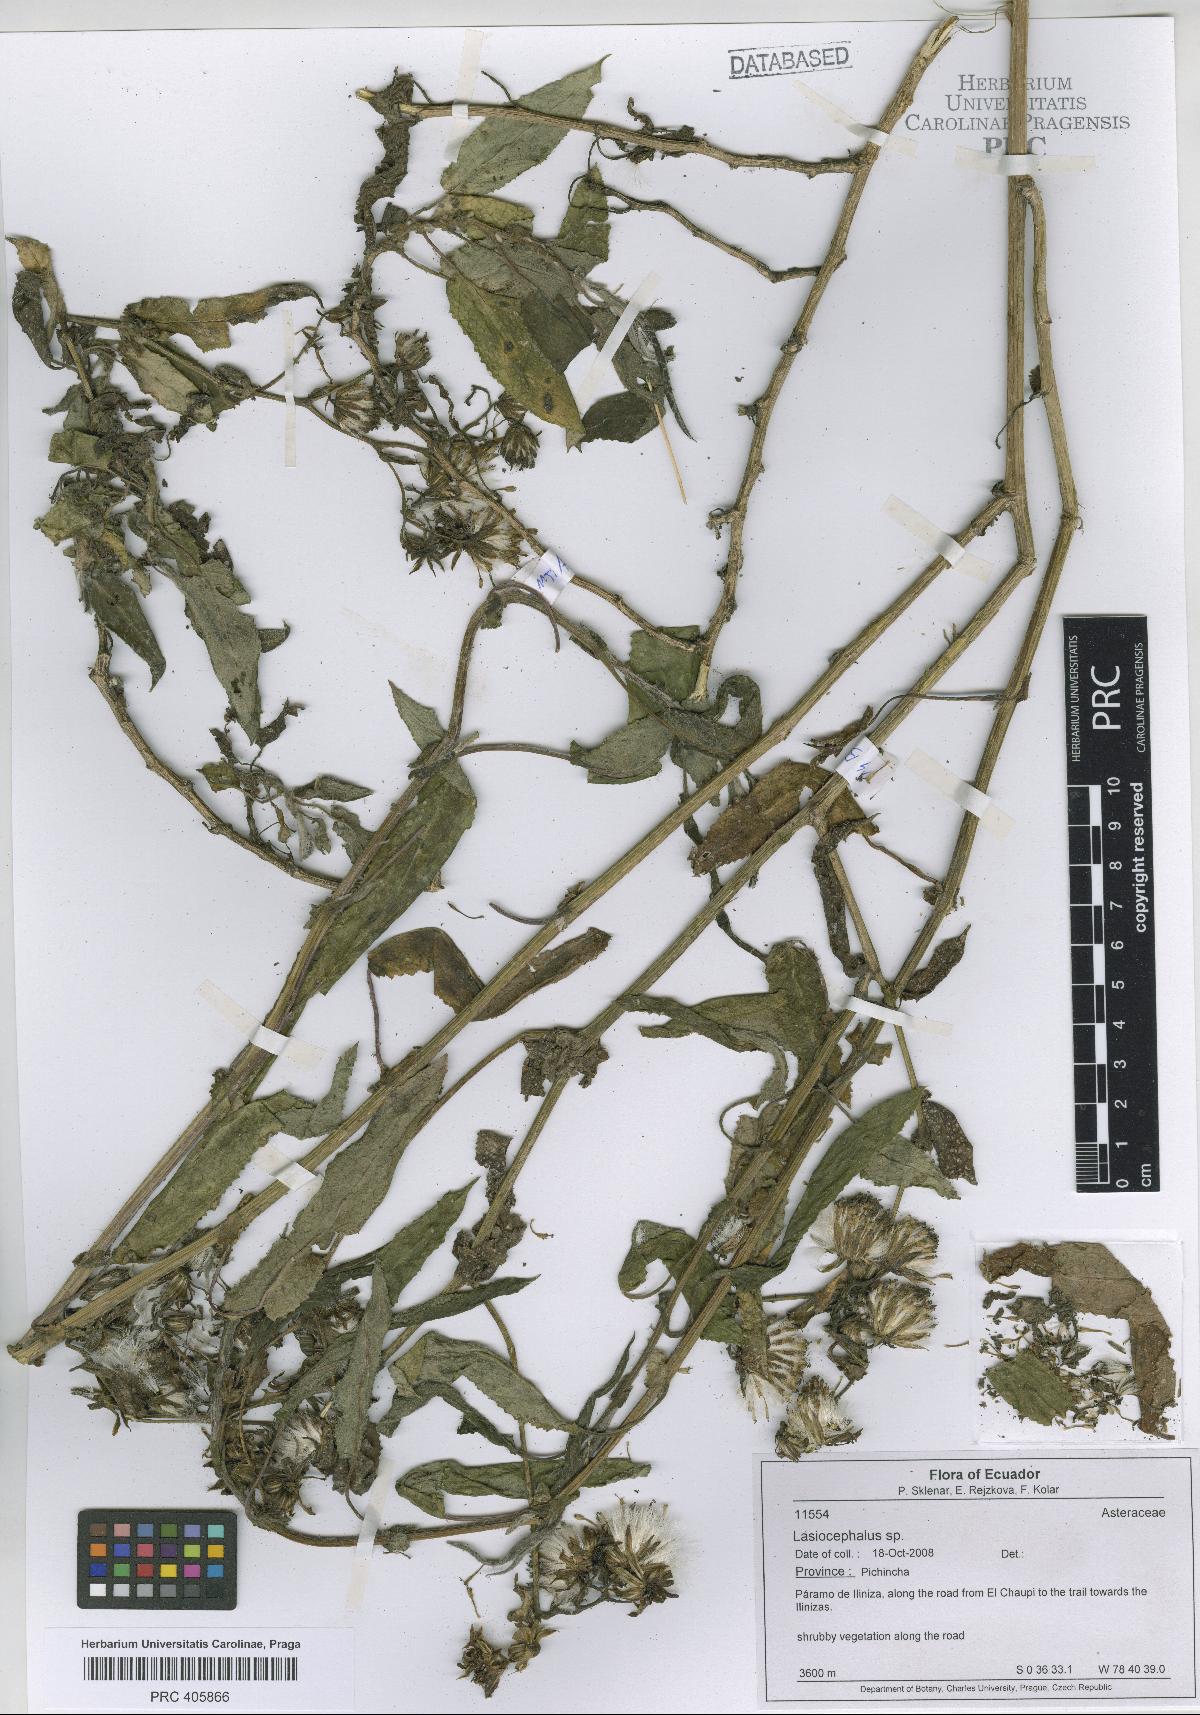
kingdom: Plantae
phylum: Tracheophyta
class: Magnoliopsida
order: Asterales
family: Asteraceae
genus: Lasiocephalus
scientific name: Lasiocephalus
